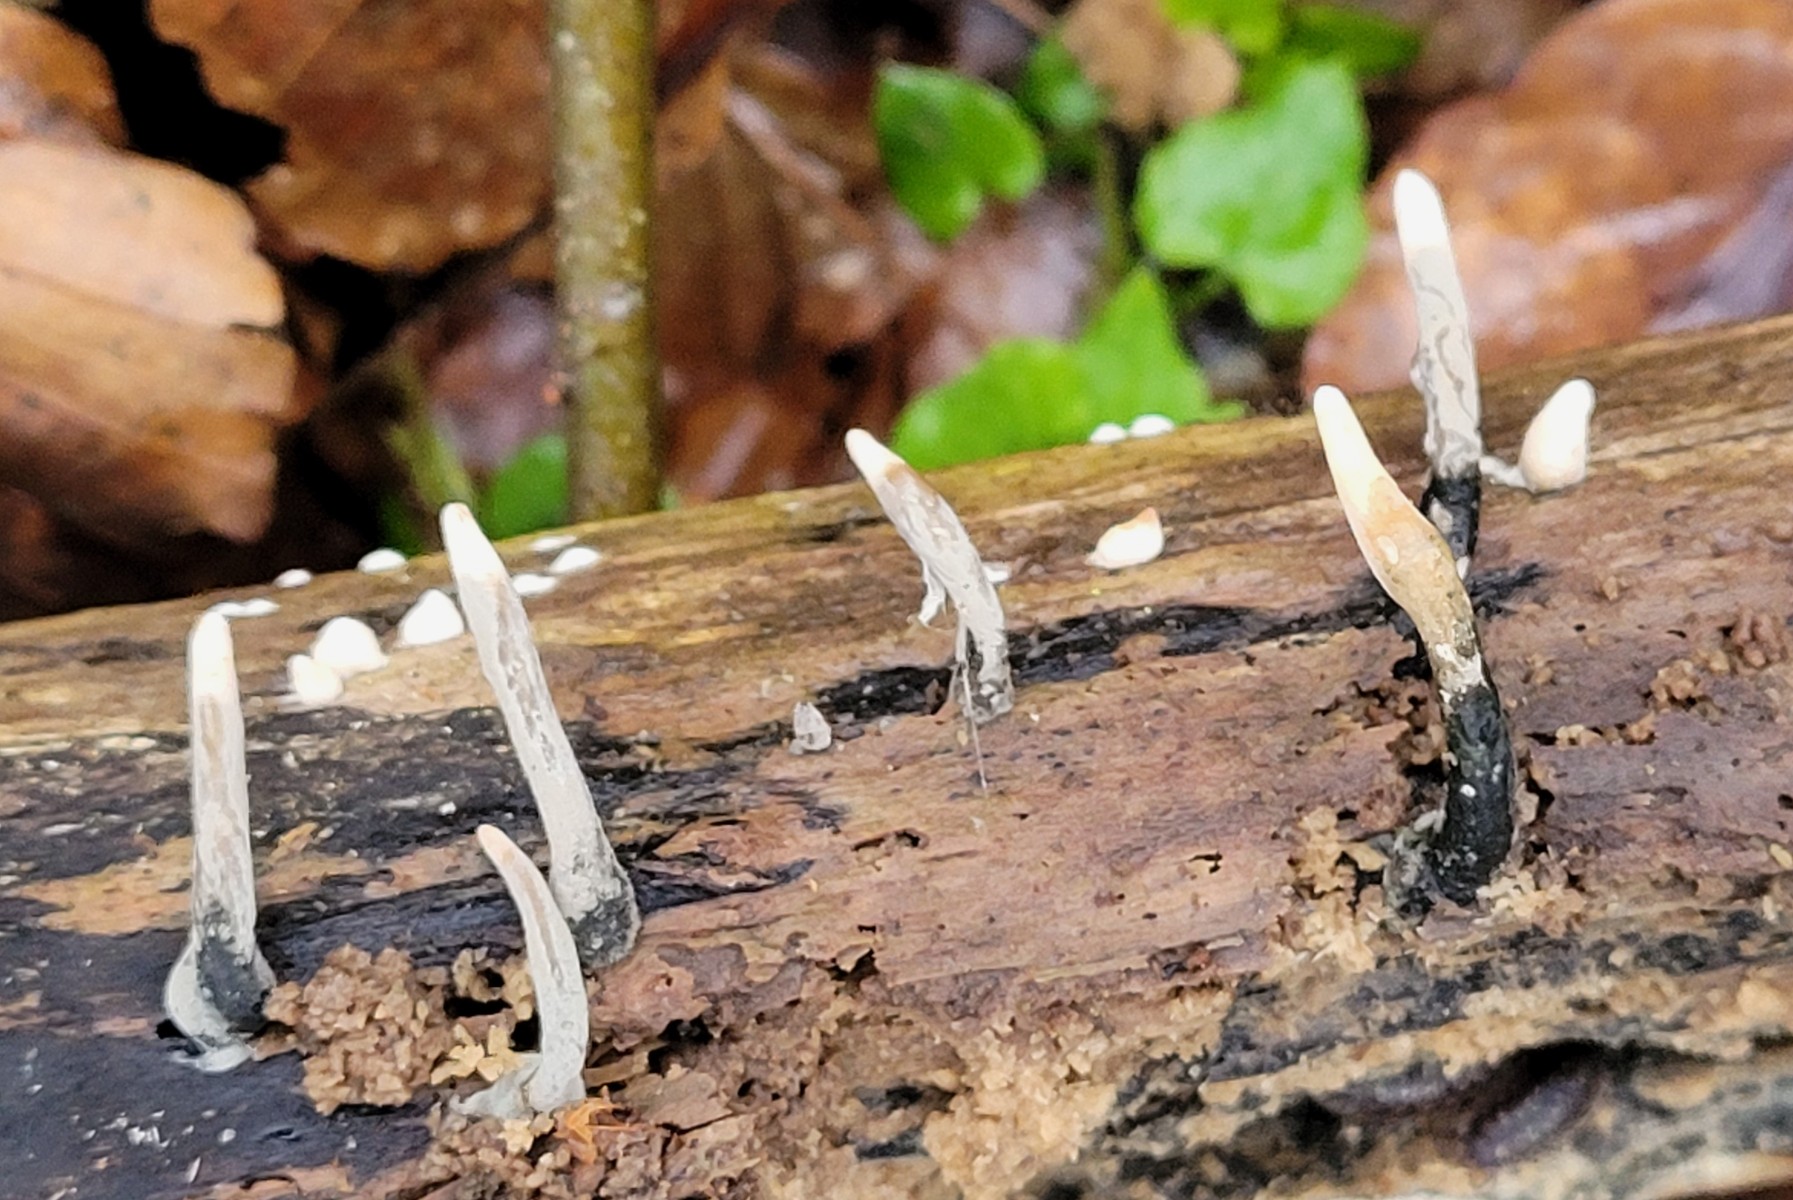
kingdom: Fungi
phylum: Ascomycota
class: Sordariomycetes
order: Xylariales
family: Xylariaceae
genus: Xylaria
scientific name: Xylaria longipes
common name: slank stødsvamp
